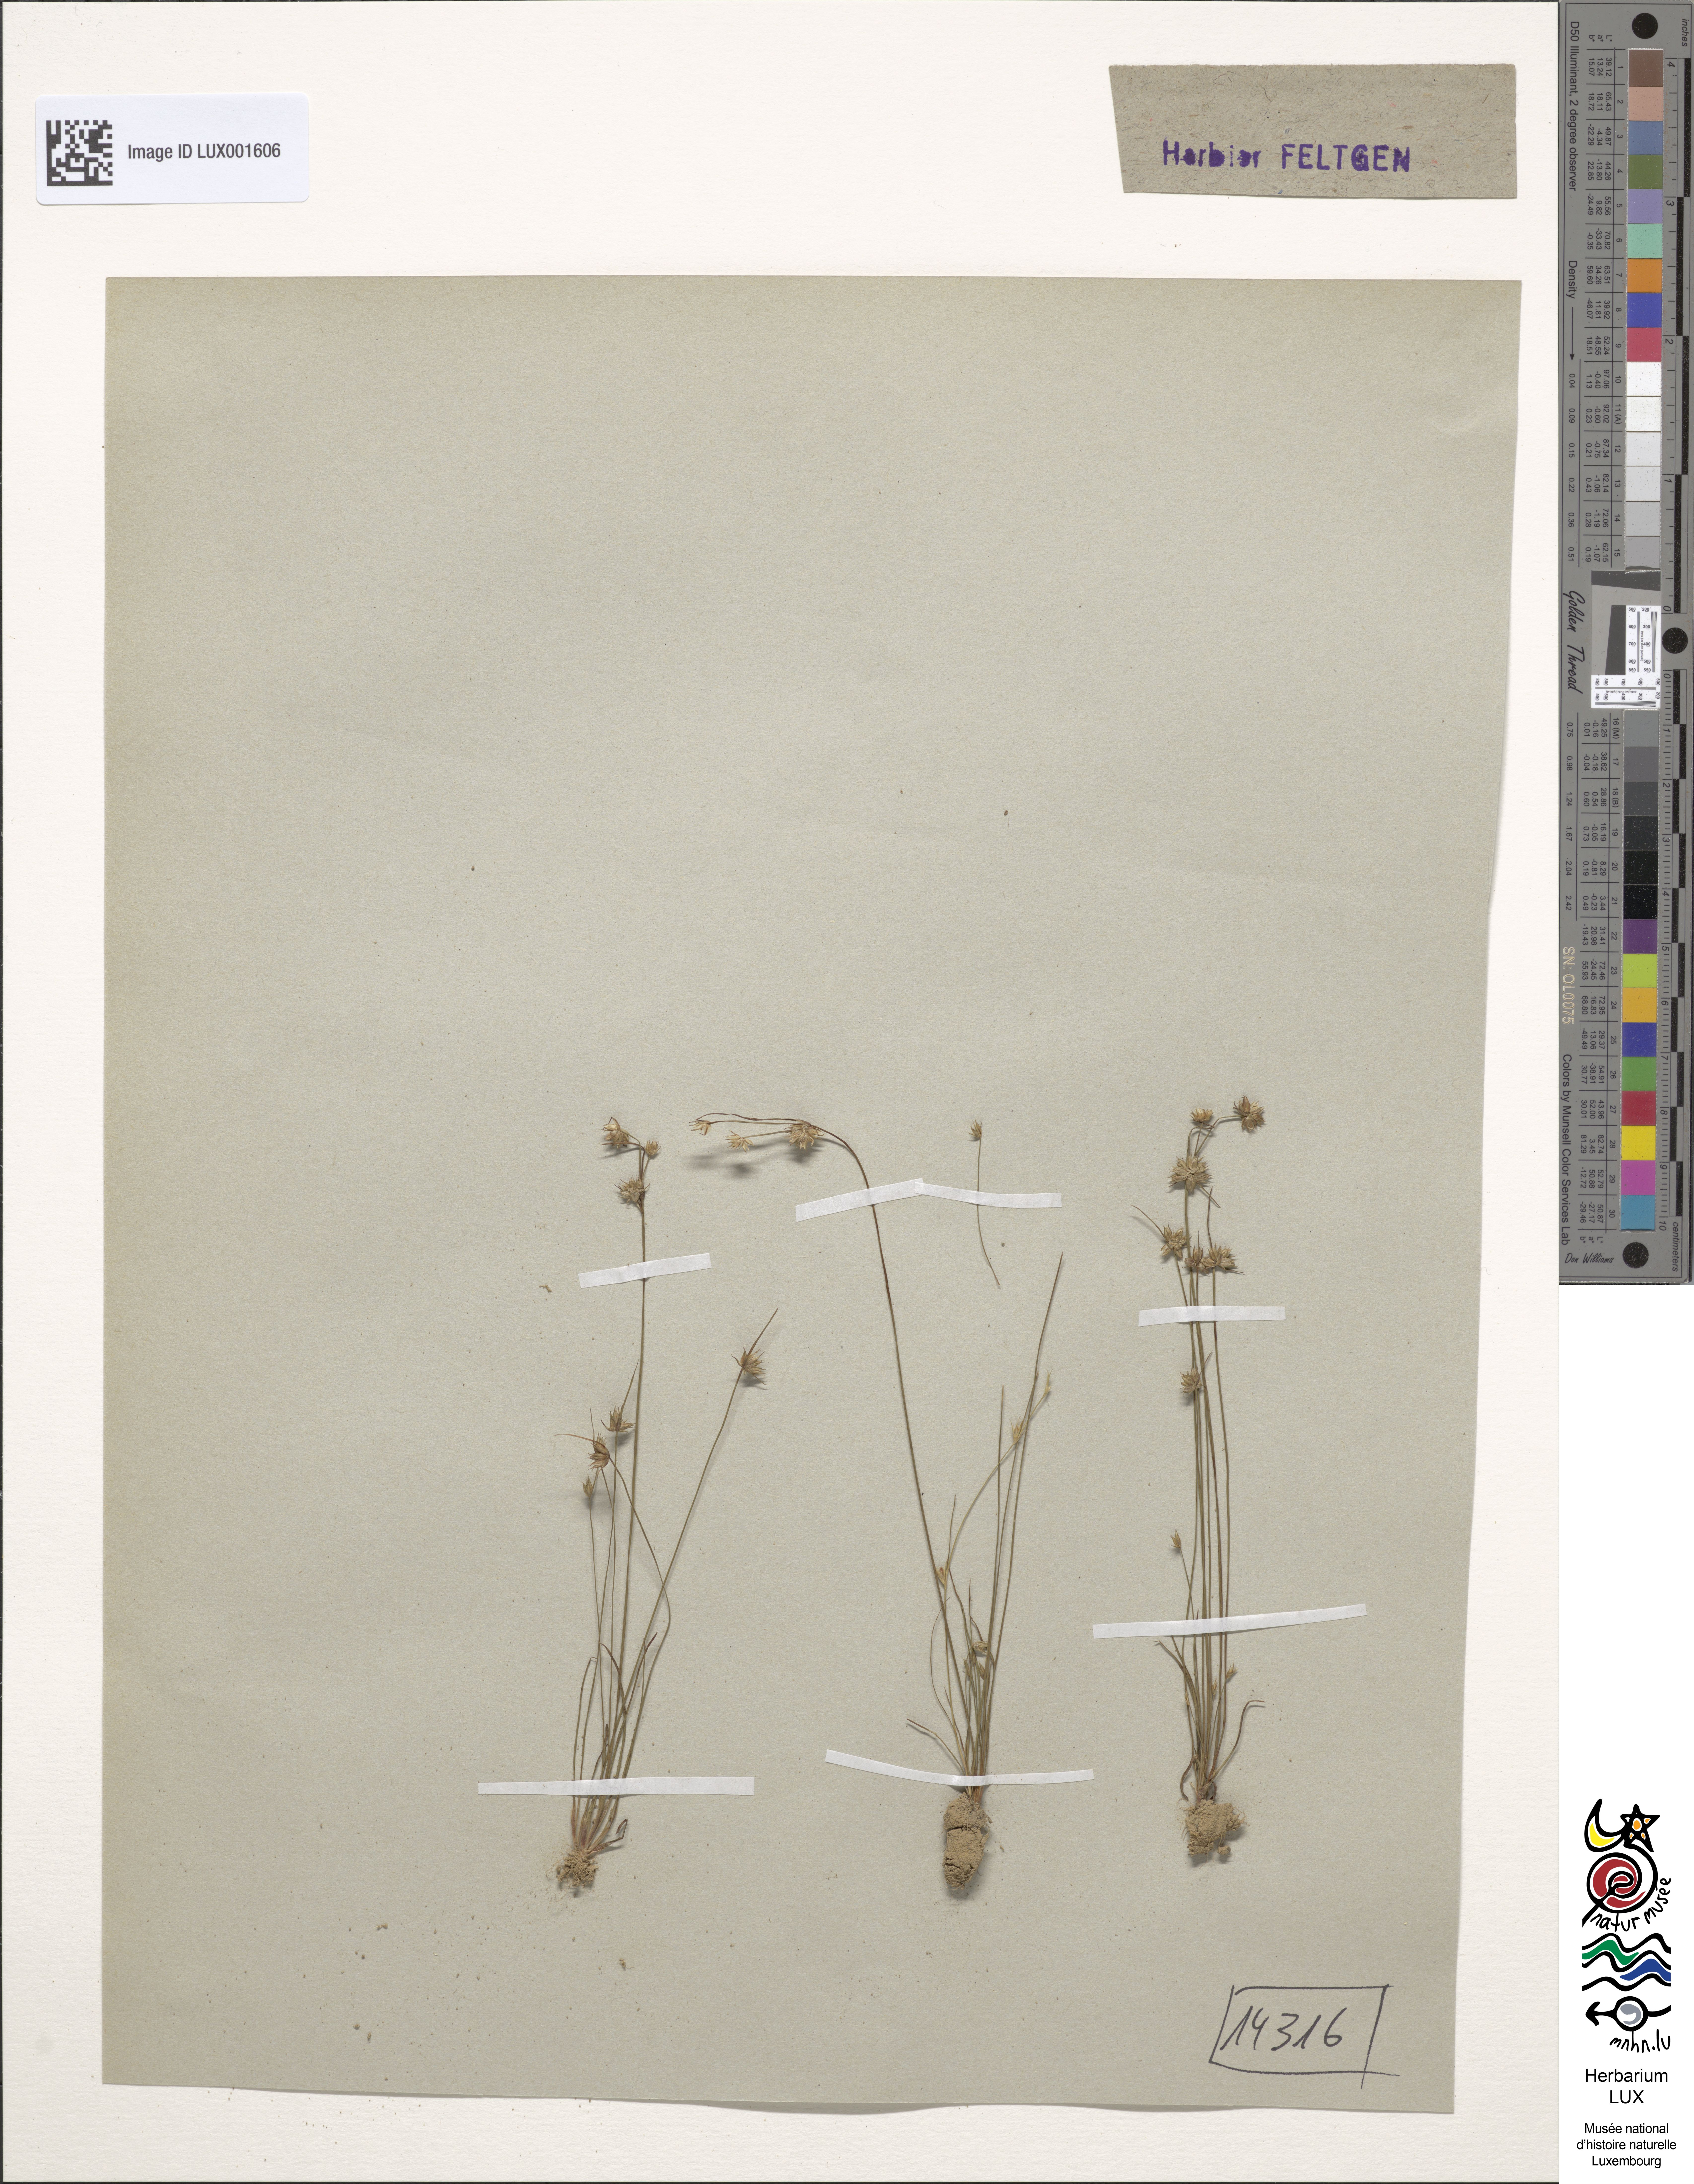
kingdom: Plantae
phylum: Tracheophyta
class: Magnoliopsida
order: Asterales
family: Asteraceae
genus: Achillea
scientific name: Achillea ptarmica
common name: Sneezeweed
